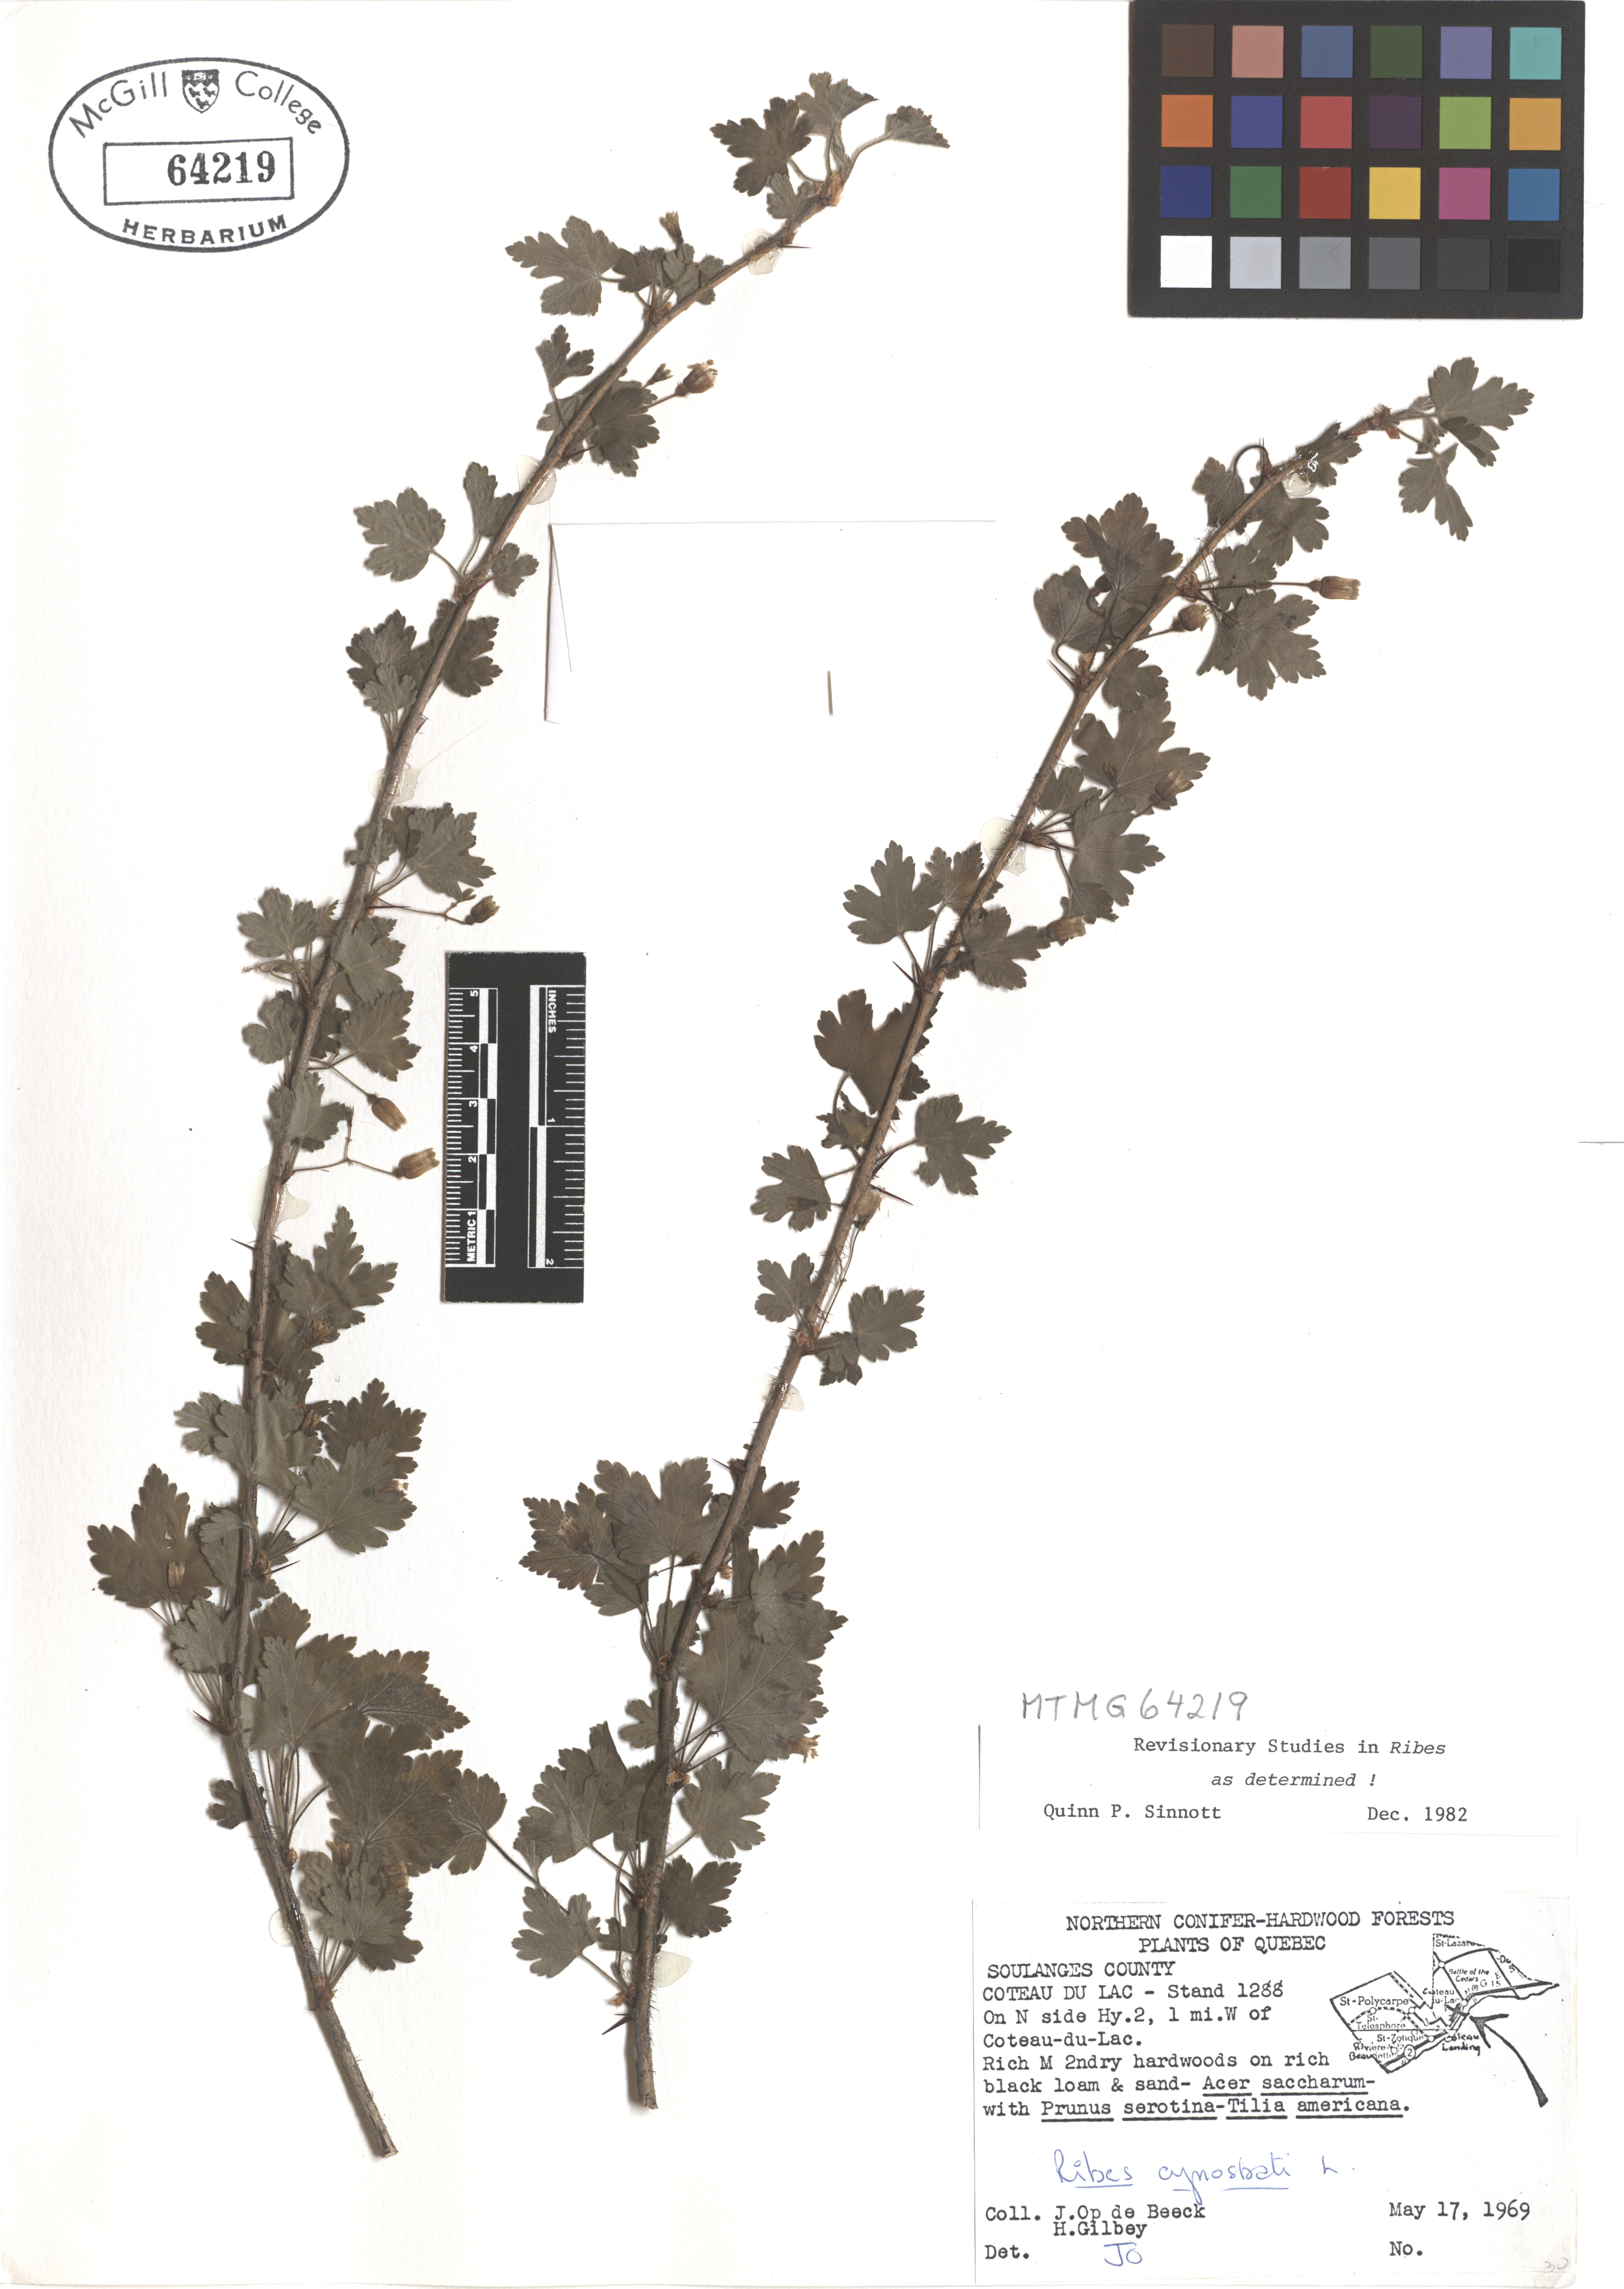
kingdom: Plantae
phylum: Tracheophyta
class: Magnoliopsida
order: Saxifragales
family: Grossulariaceae
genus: Ribes
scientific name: Ribes cynosbati
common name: American gooseberry
